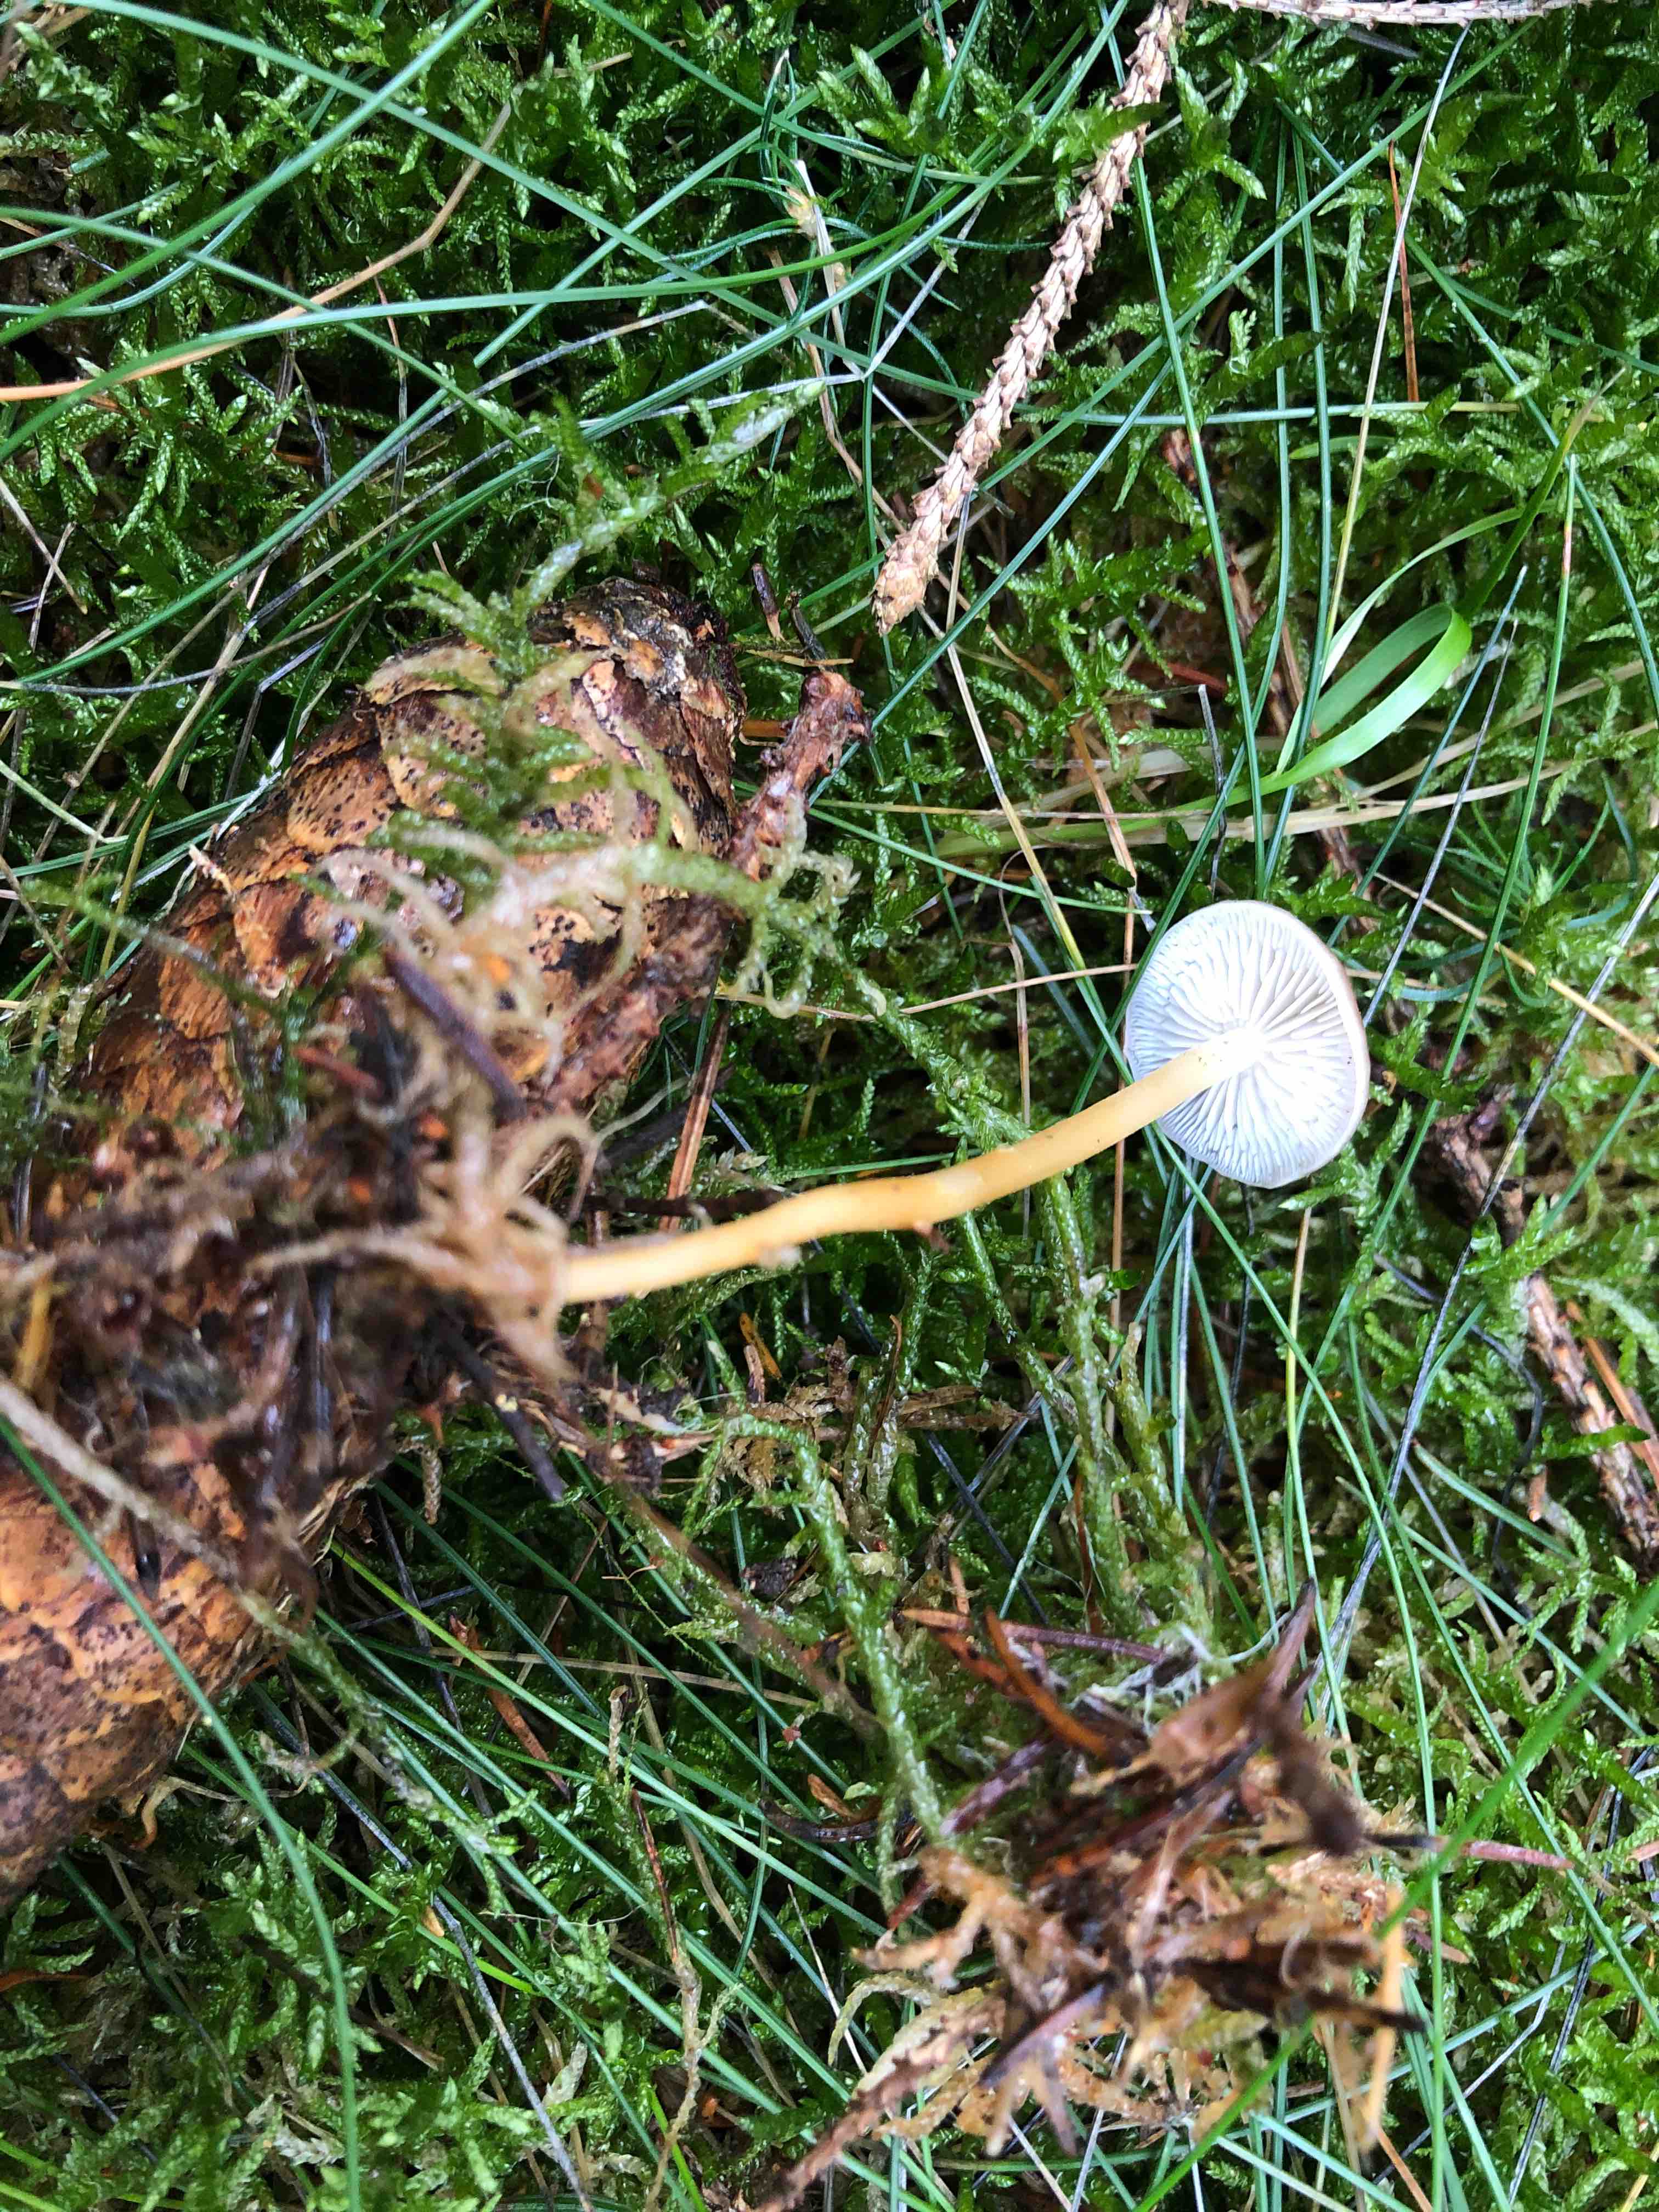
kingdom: Fungi
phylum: Basidiomycota
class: Agaricomycetes
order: Agaricales
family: Physalacriaceae
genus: Strobilurus
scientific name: Strobilurus esculentus
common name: gran-koglehat
